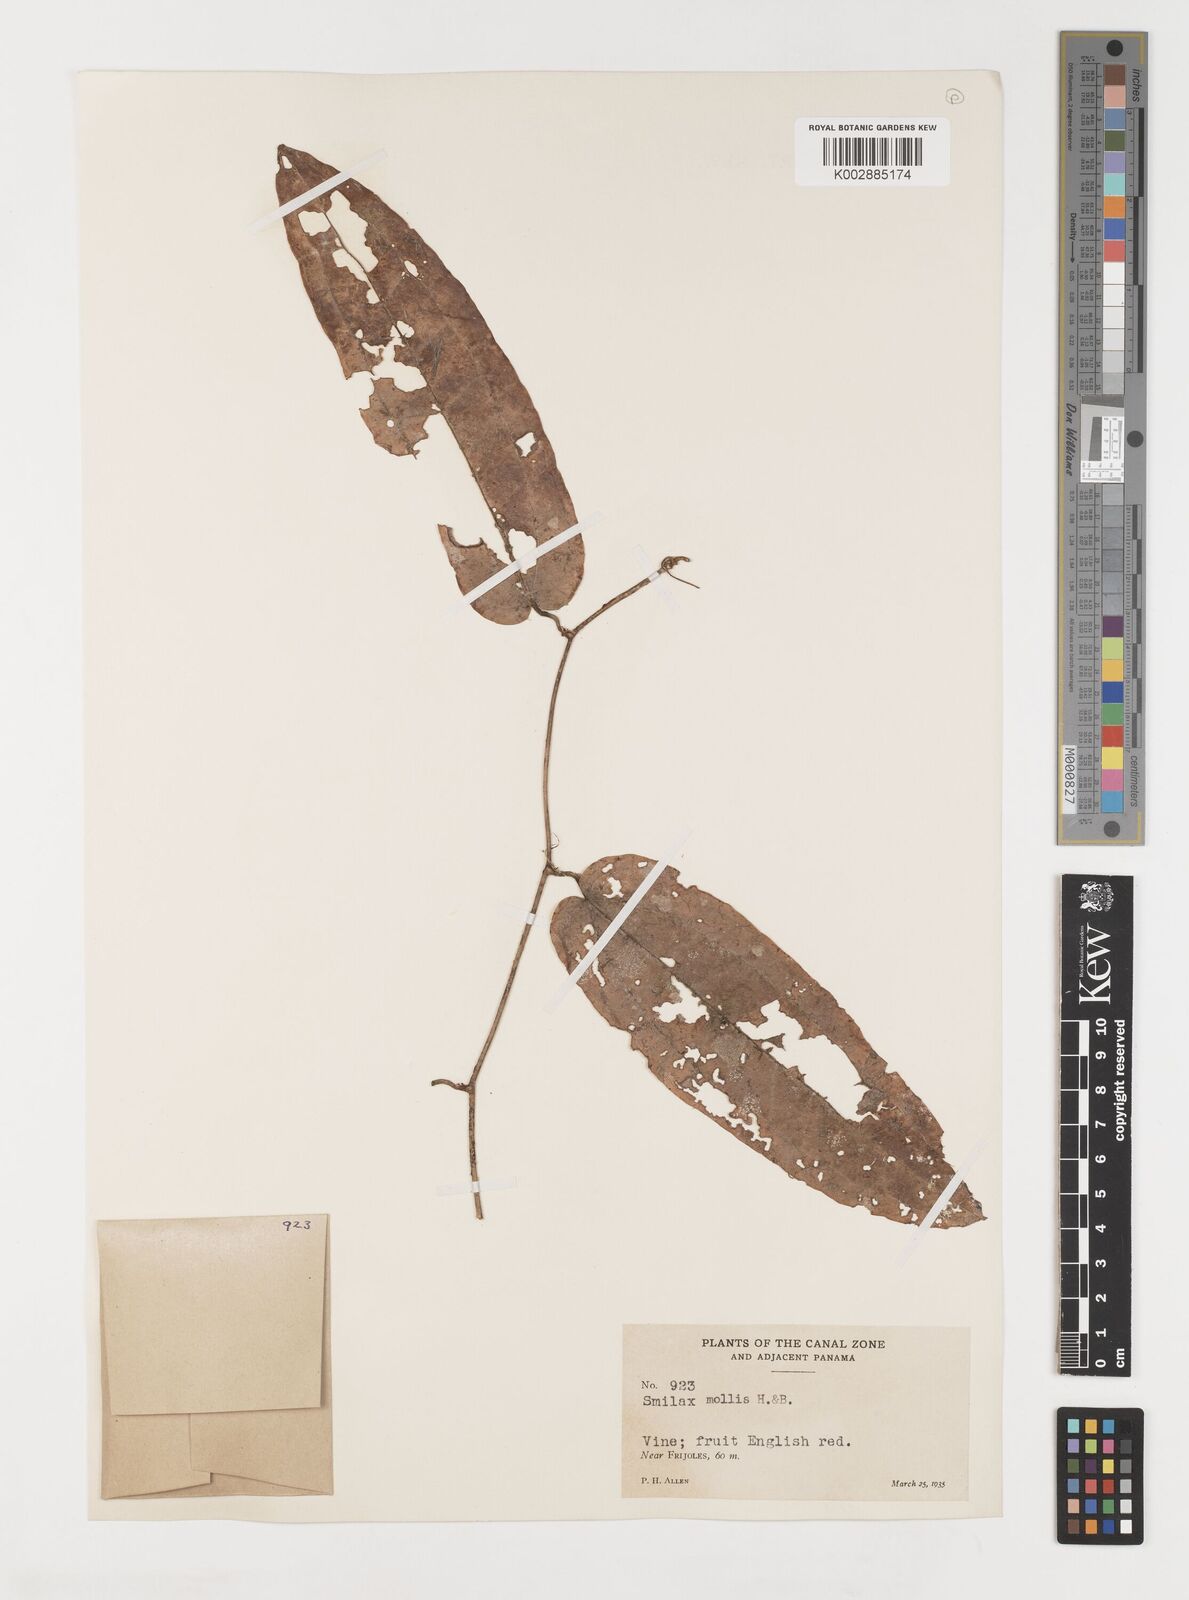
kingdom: Plantae
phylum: Tracheophyta
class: Liliopsida
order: Liliales
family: Smilacaceae
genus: Smilax
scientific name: Smilax mollis
